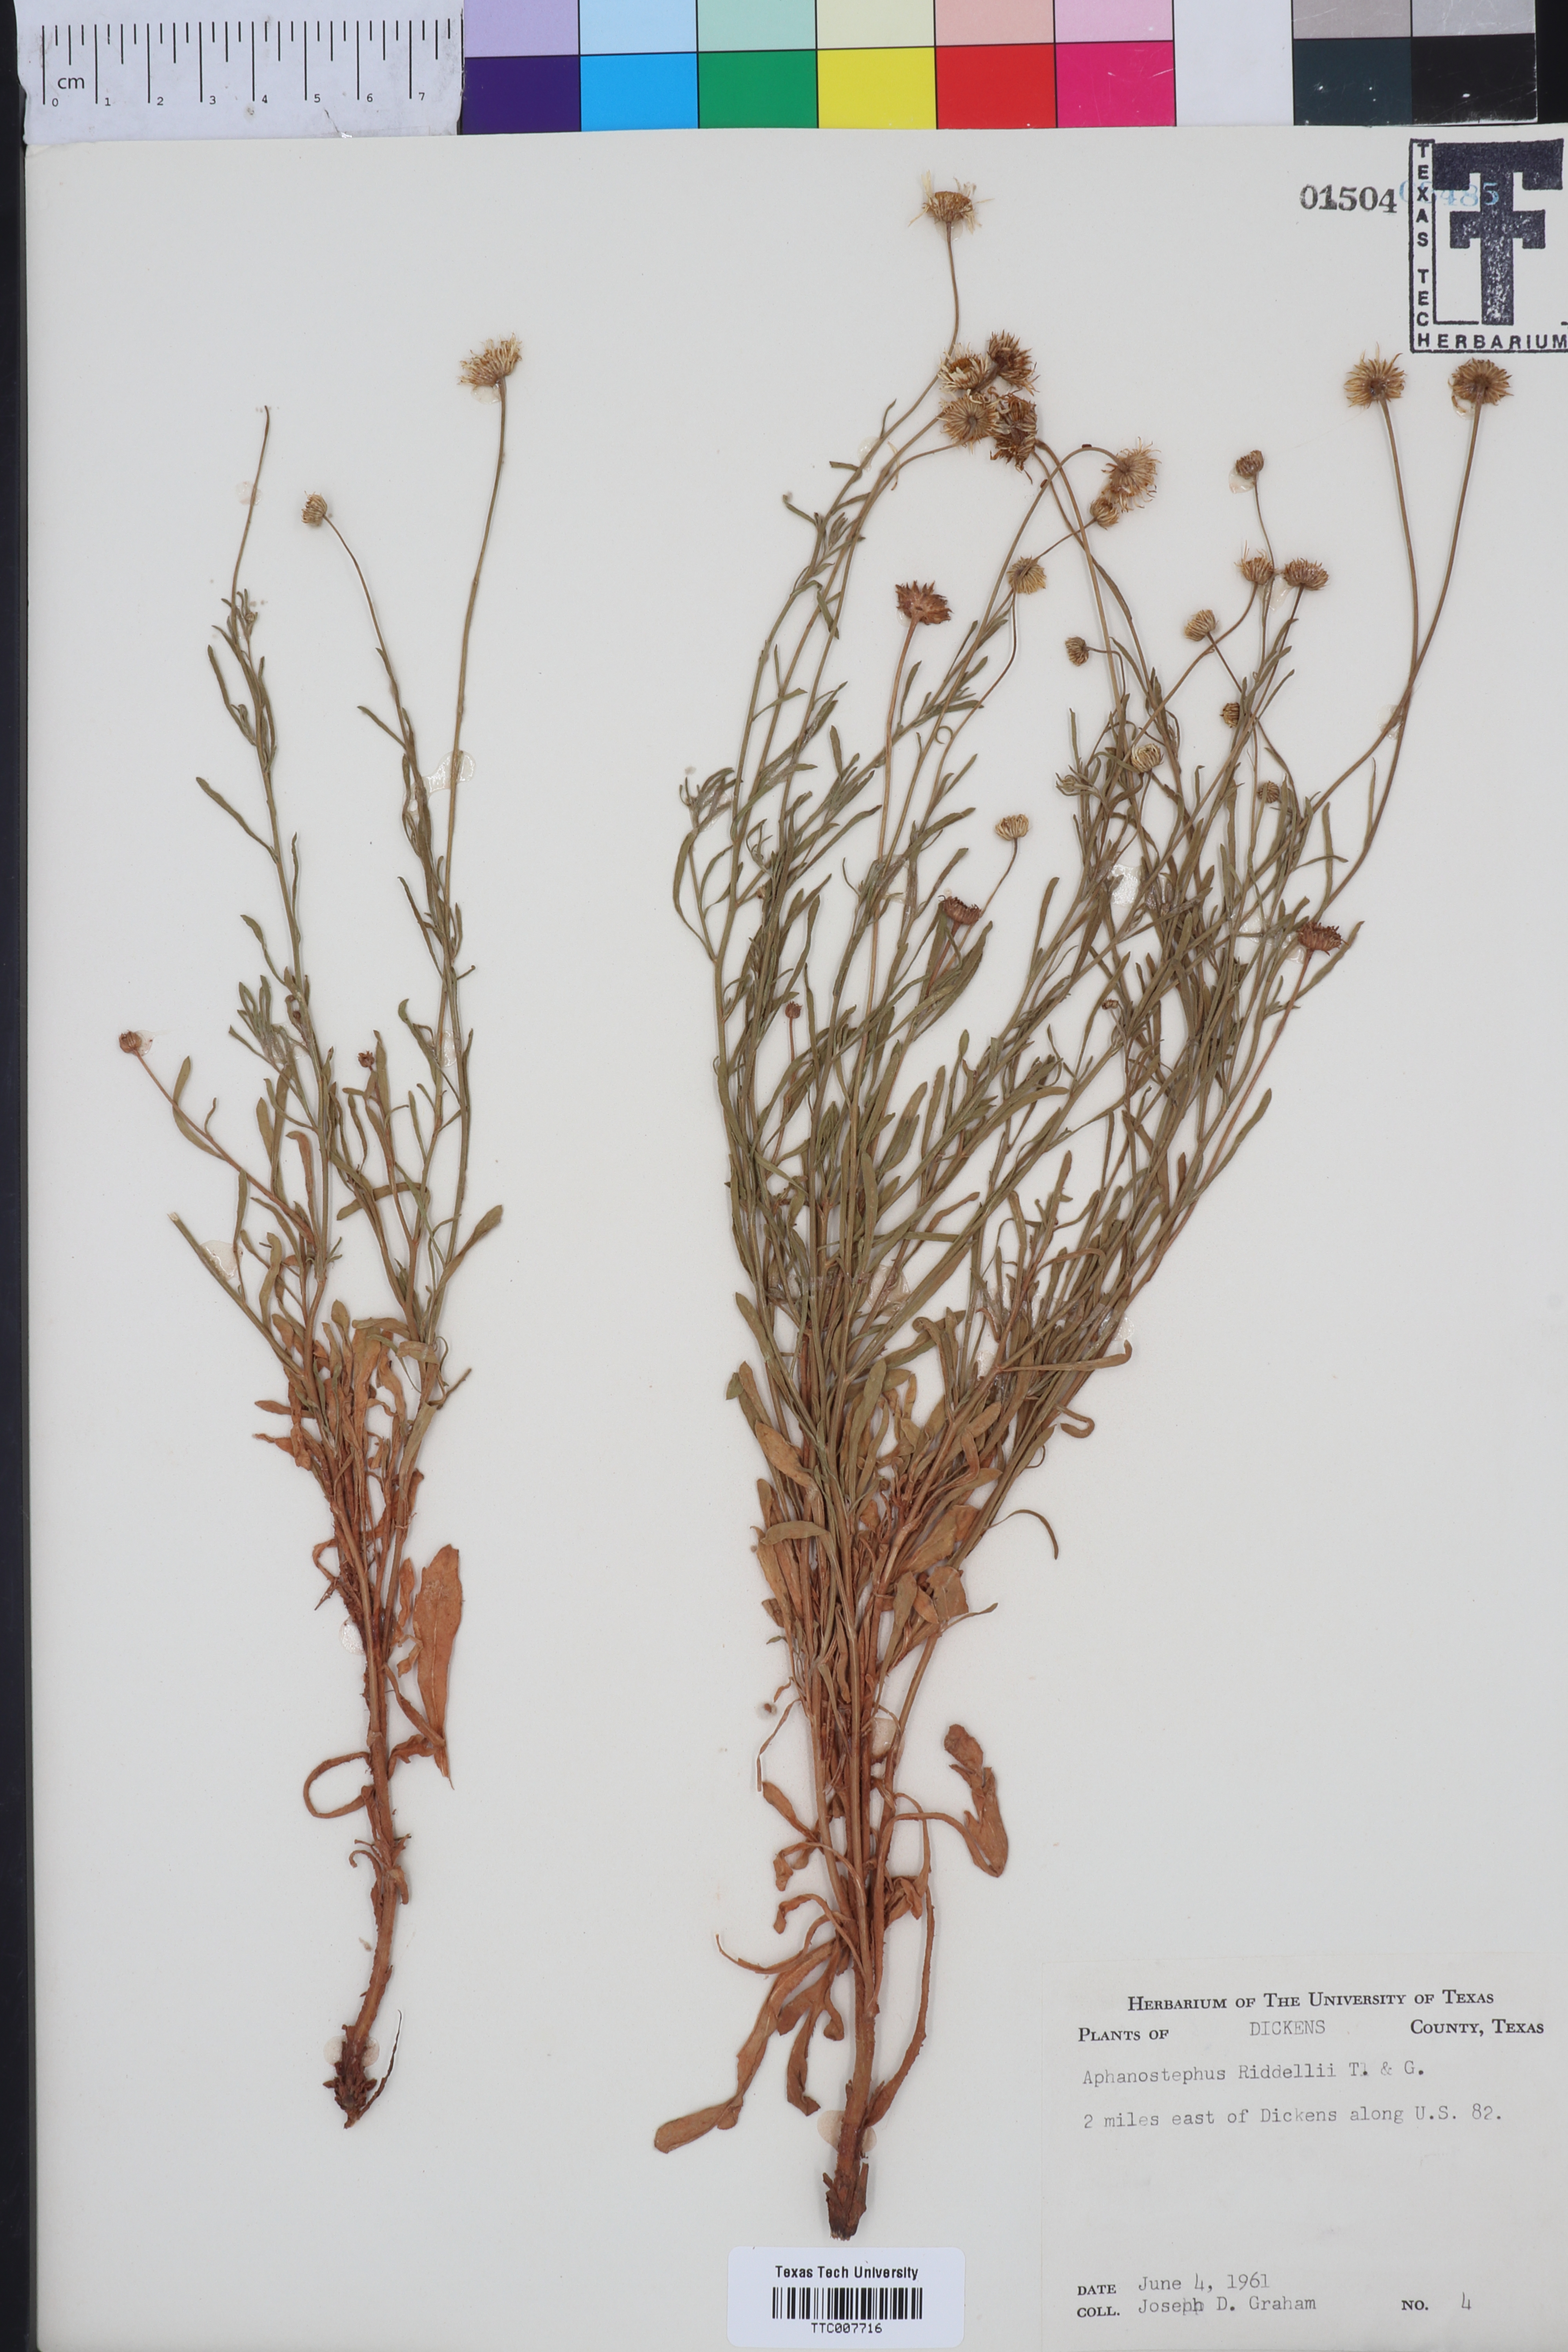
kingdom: Plantae
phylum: Tracheophyta
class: Magnoliopsida
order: Asterales
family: Asteraceae
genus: Aphanostephus
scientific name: Aphanostephus riddellii
